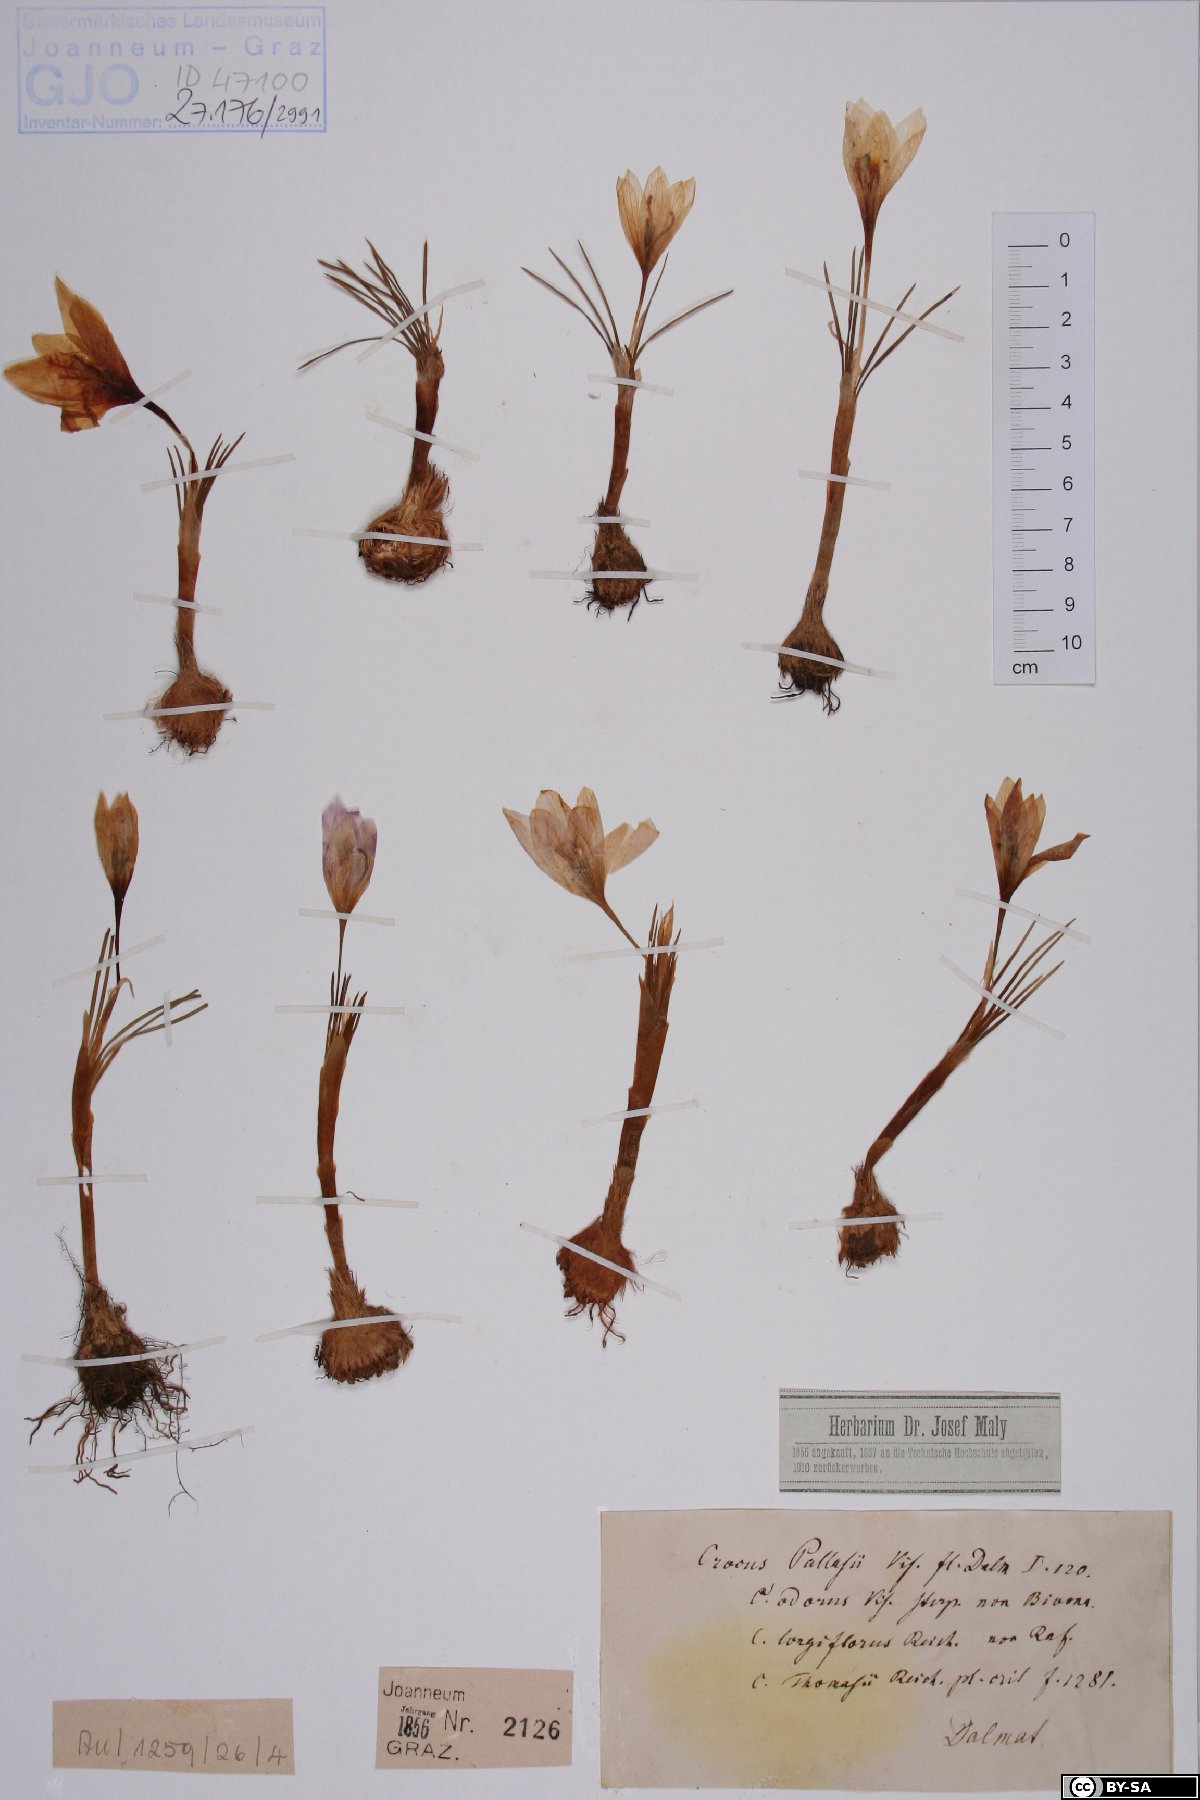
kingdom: Plantae
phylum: Tracheophyta
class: Liliopsida
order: Asparagales
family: Iridaceae
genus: Crocus
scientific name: Crocus pallasii
